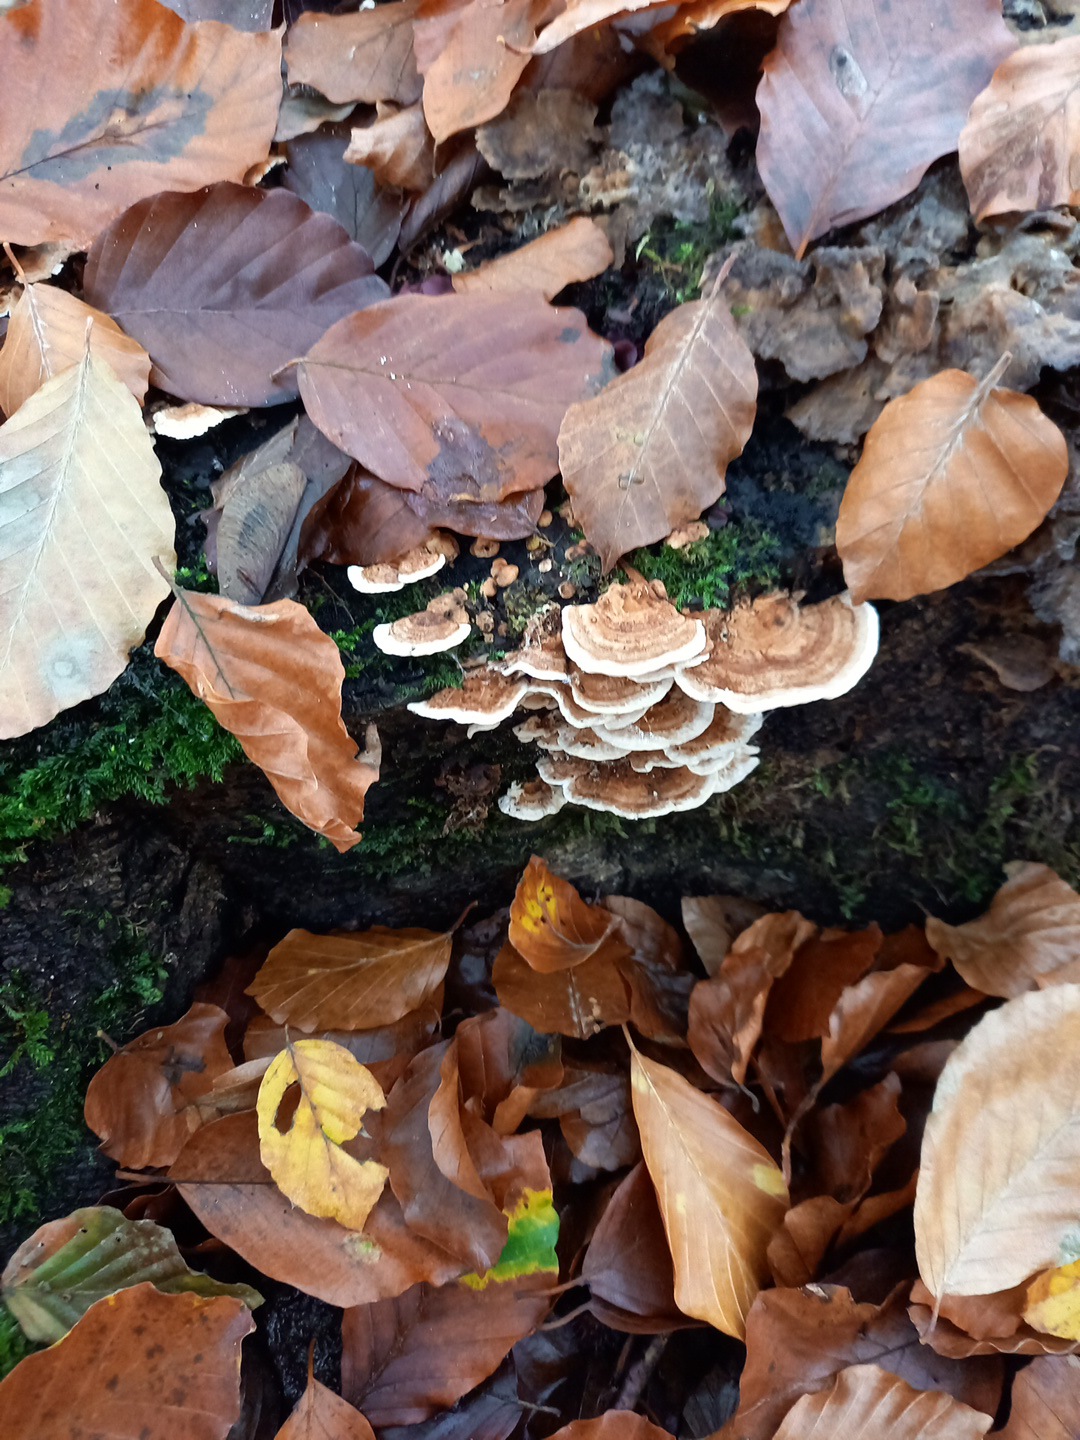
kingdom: Fungi
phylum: Basidiomycota
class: Agaricomycetes
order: Polyporales
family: Polyporaceae
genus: Trametes
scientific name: Trametes
